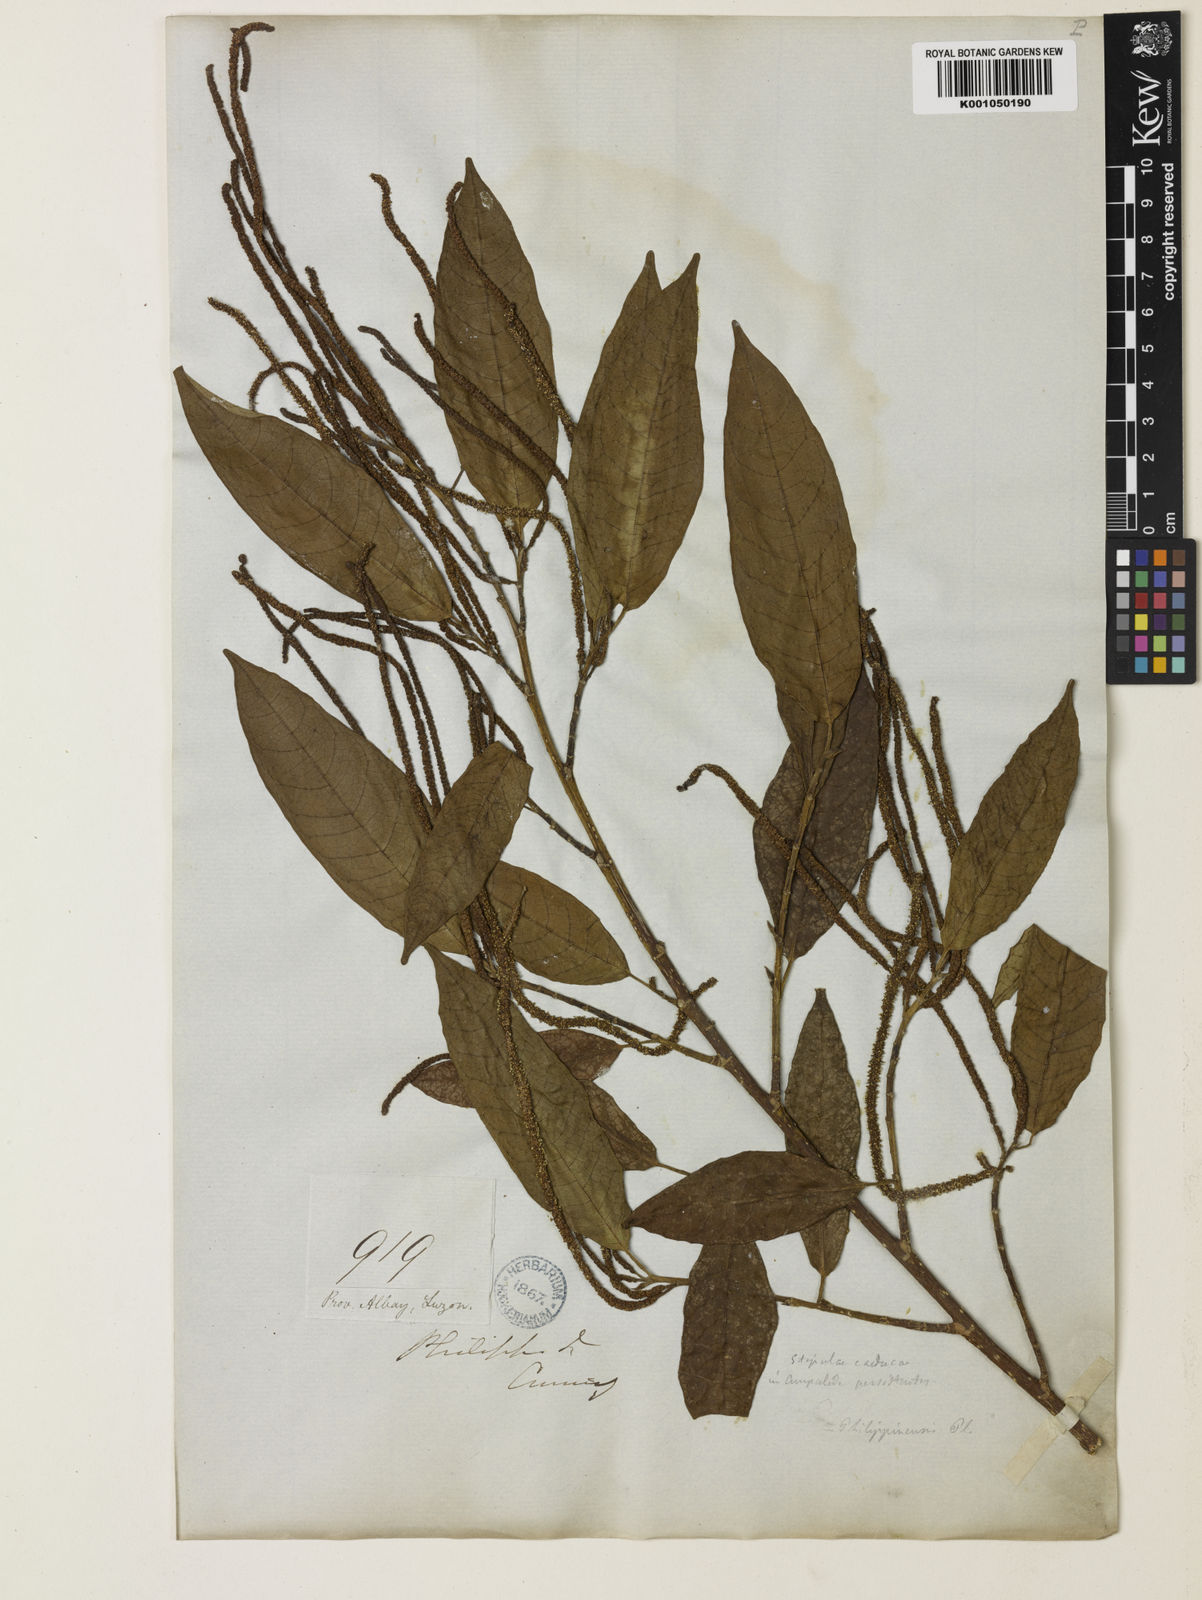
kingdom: Plantae
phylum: Tracheophyta
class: Magnoliopsida
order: Rosales
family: Moraceae
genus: Paratrophis
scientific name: Paratrophis philippinensis
